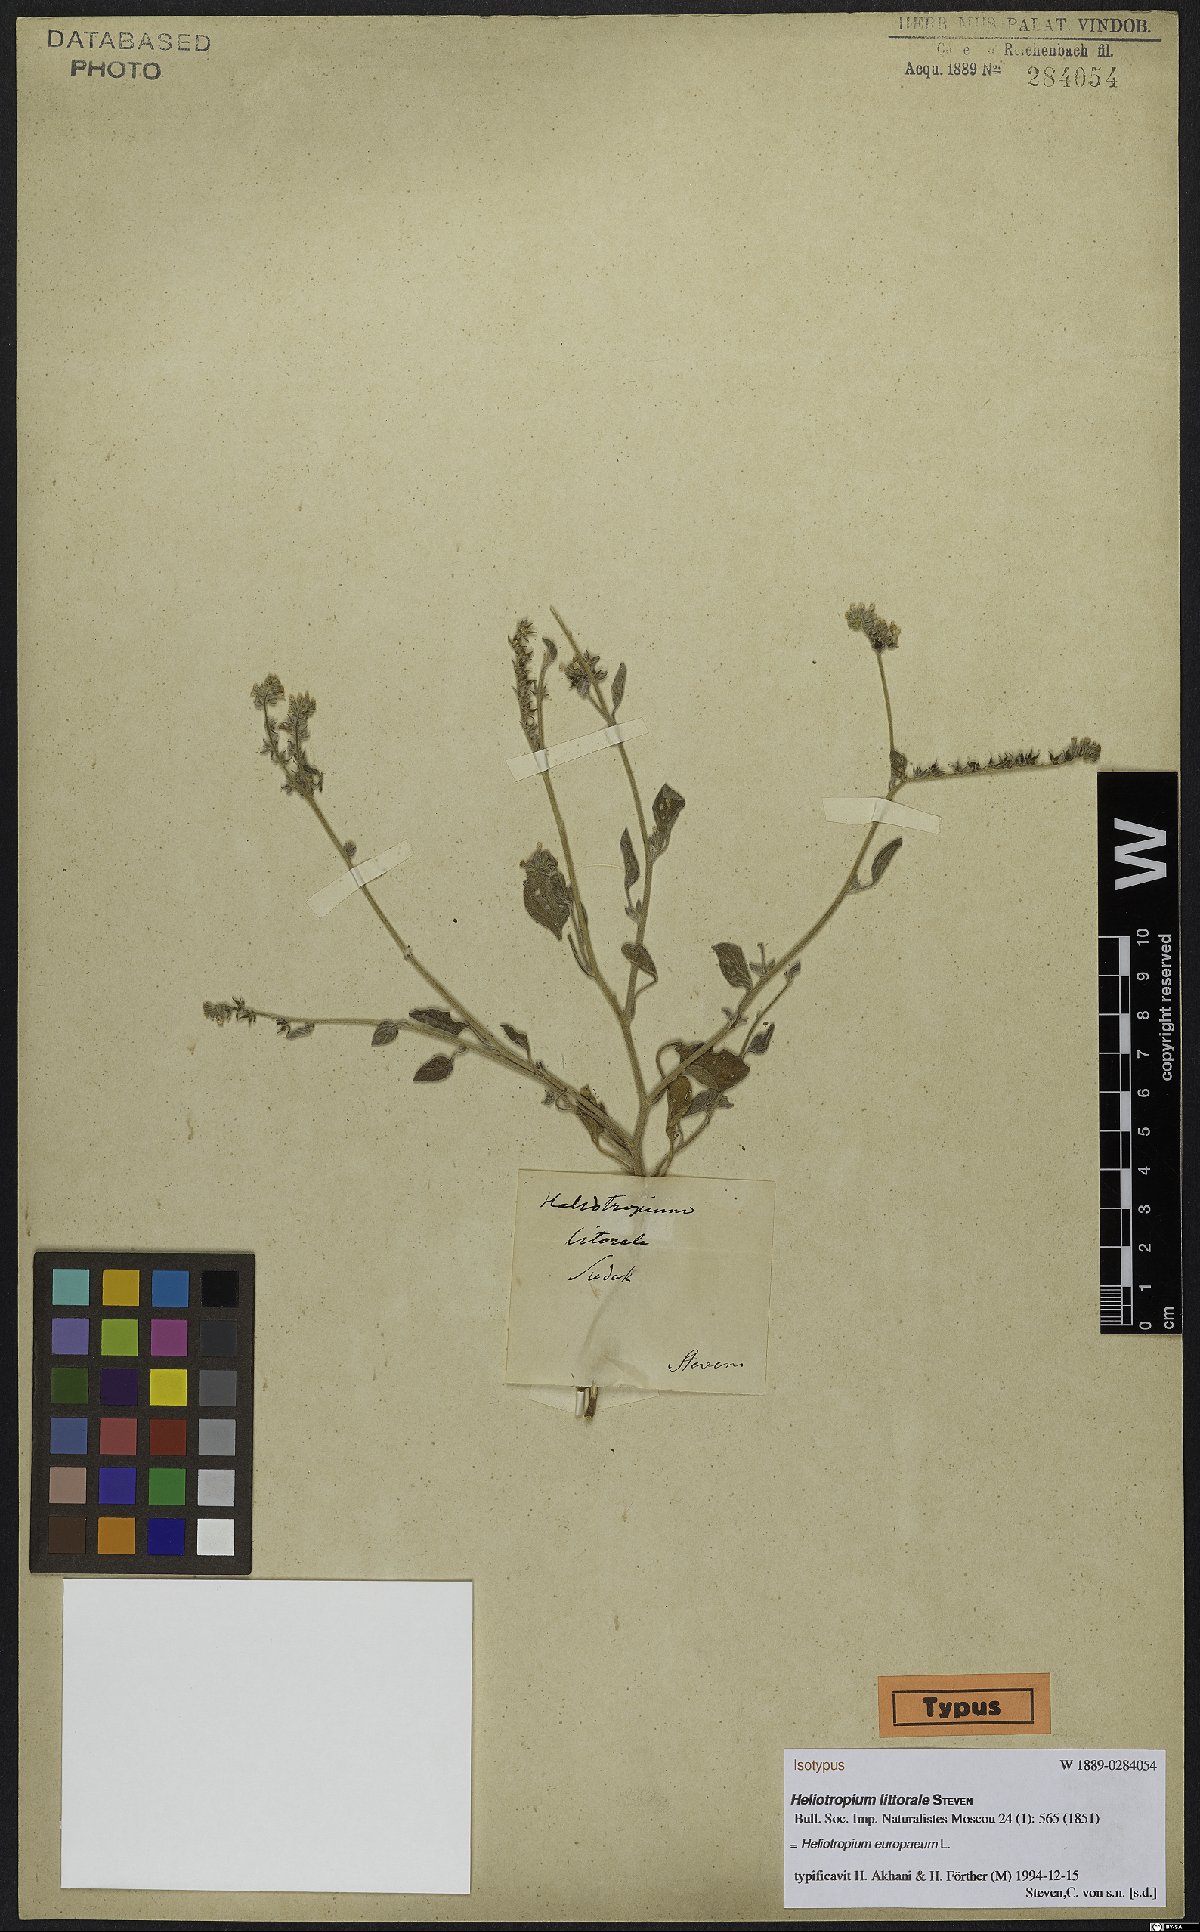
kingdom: Plantae
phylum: Tracheophyta
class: Magnoliopsida
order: Boraginales
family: Heliotropiaceae
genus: Heliotropium
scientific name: Heliotropium europaeum
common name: European heliotrope
